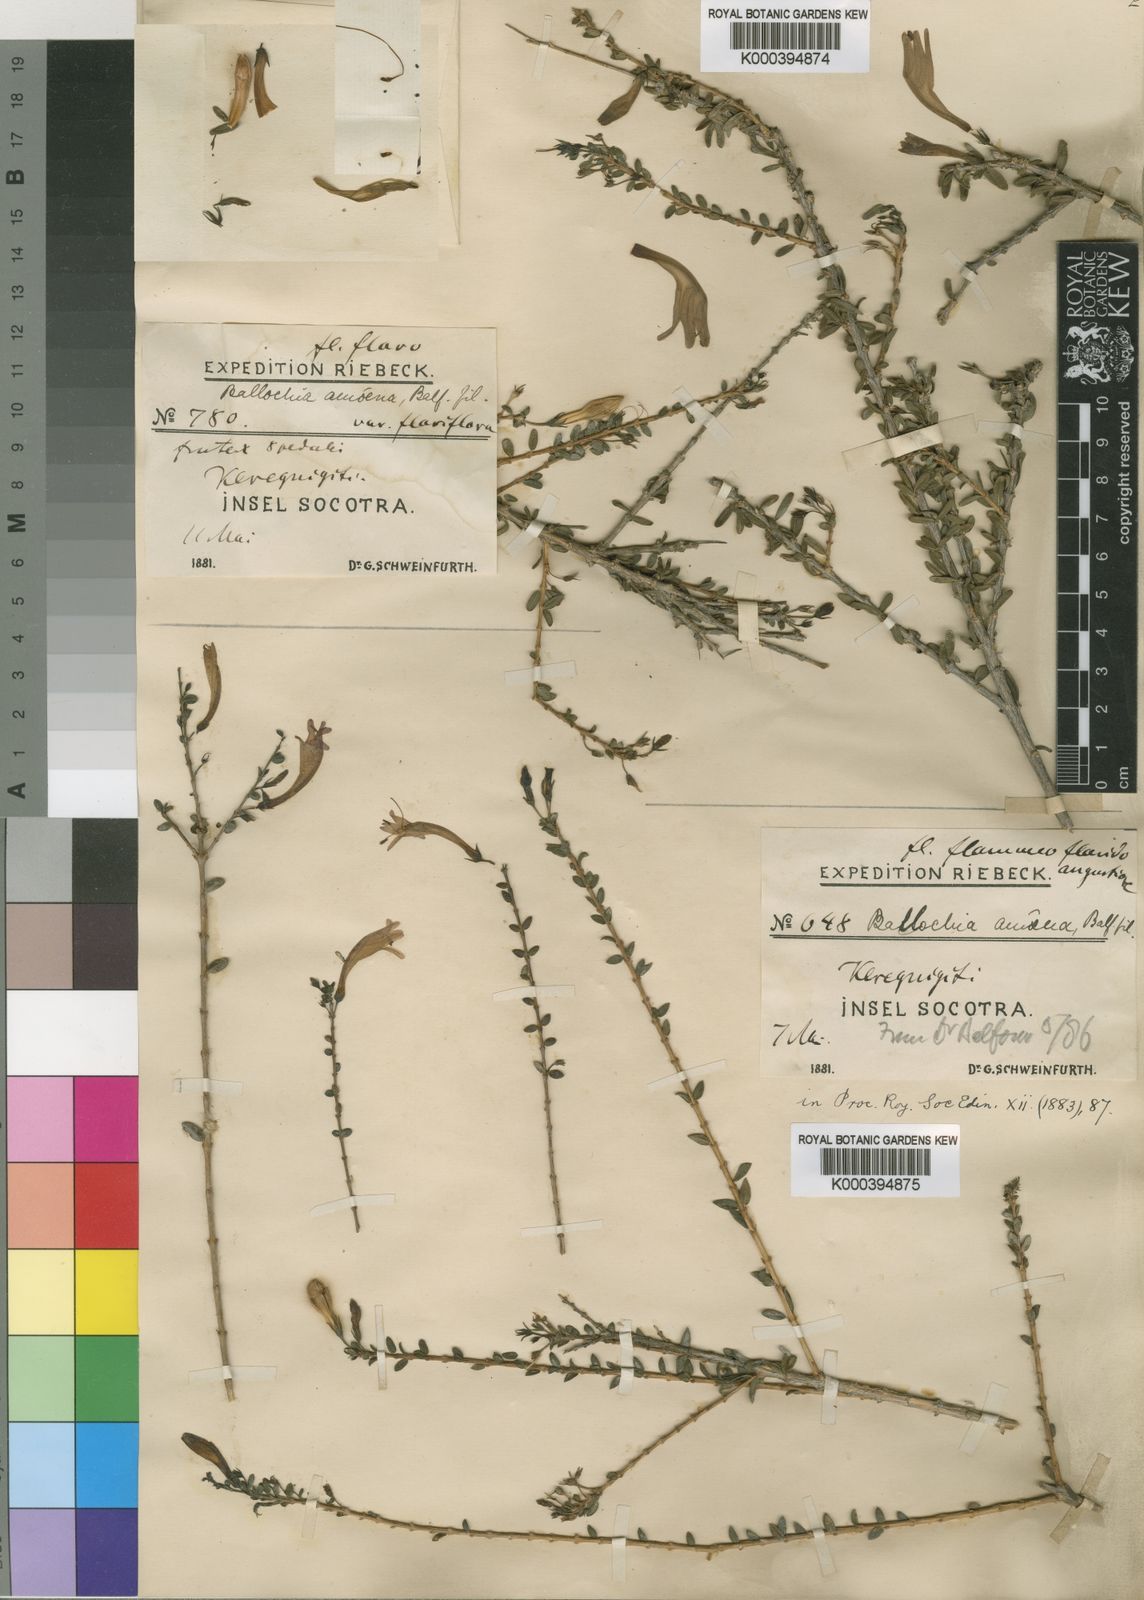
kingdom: Plantae
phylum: Tracheophyta
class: Magnoliopsida
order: Lamiales
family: Acanthaceae
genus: Ballochia
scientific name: Ballochia amoena
